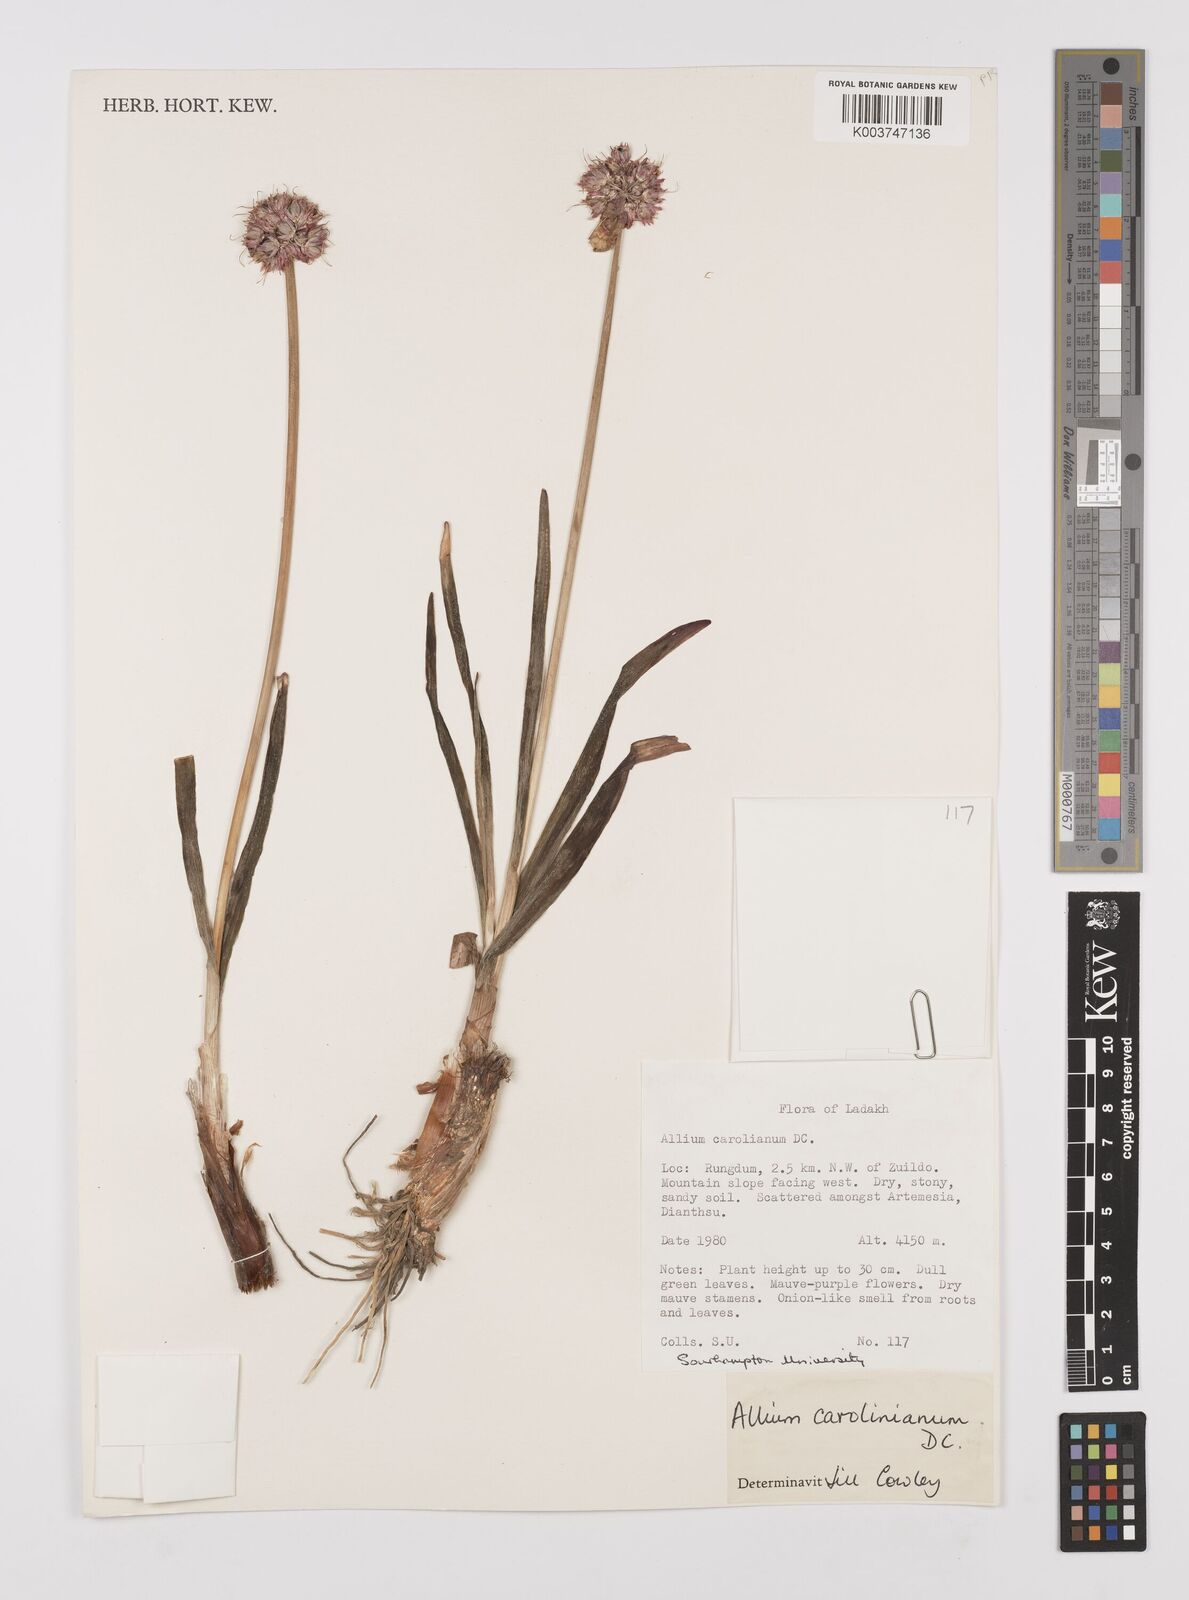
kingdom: Plantae
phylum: Tracheophyta
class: Liliopsida
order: Asparagales
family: Amaryllidaceae
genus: Allium
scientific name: Allium carolinianum
